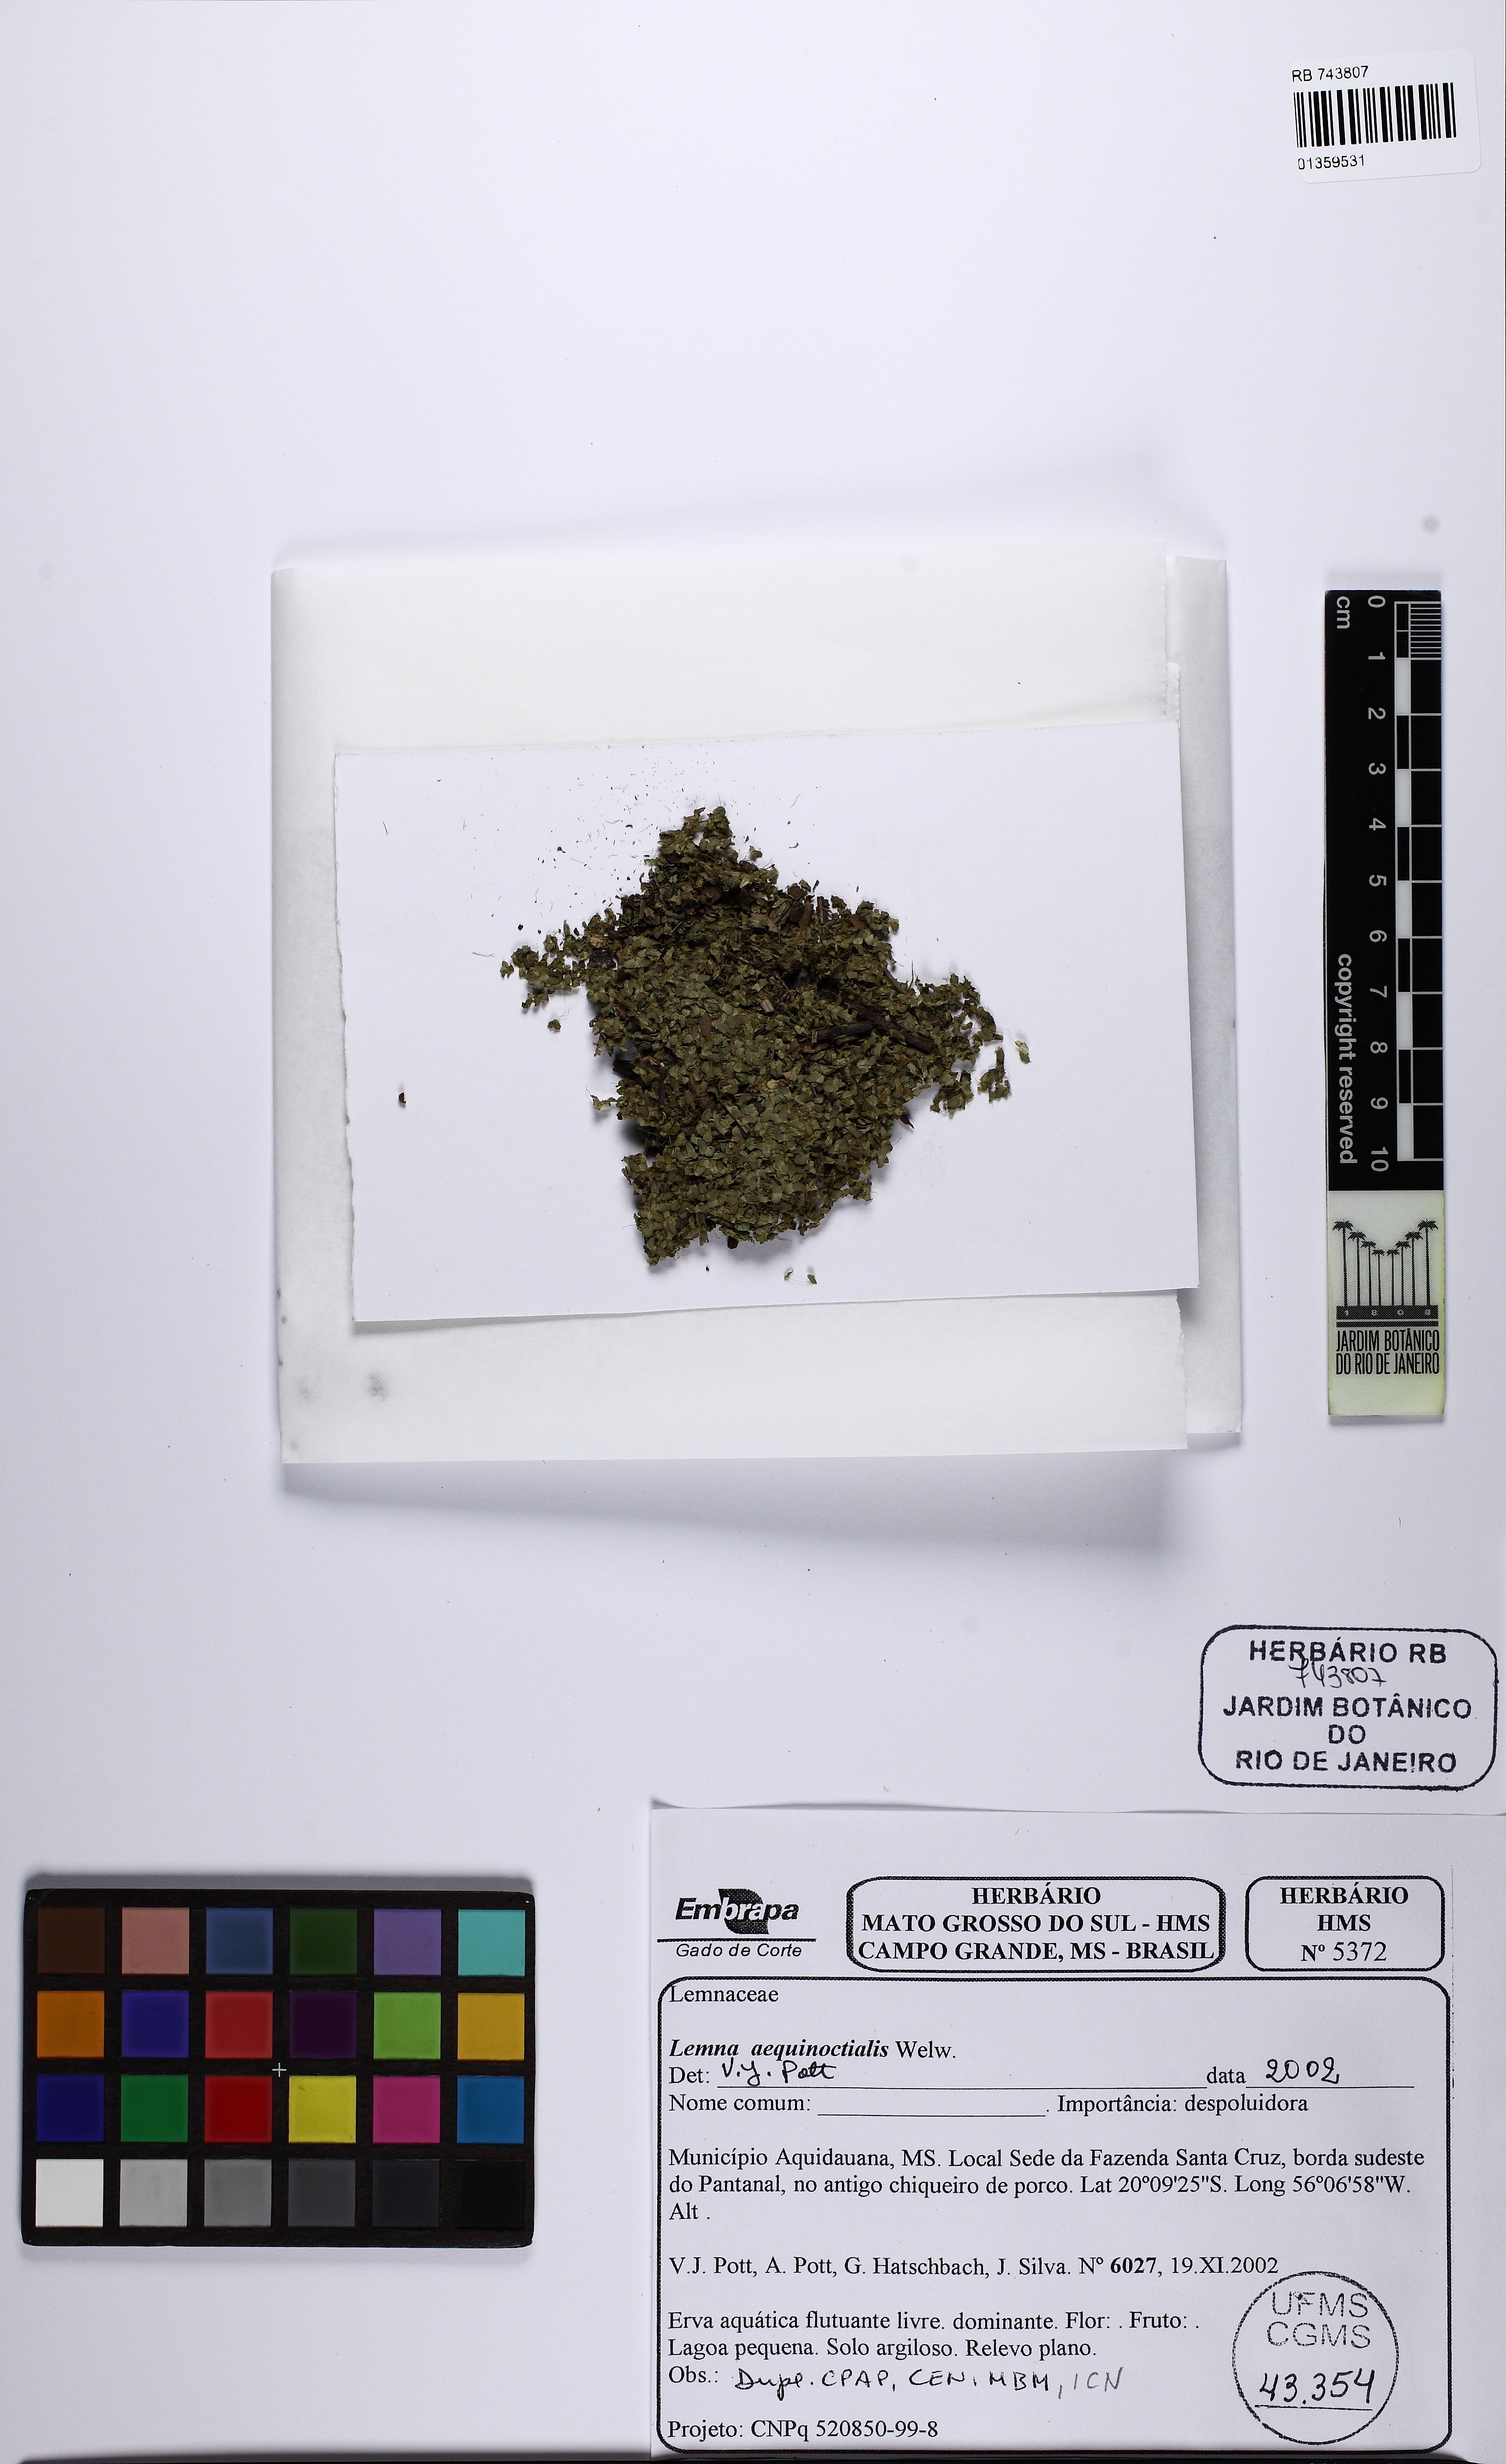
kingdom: Plantae
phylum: Tracheophyta
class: Liliopsida
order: Alismatales
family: Araceae
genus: Lemna
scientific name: Lemna aequinoctialis
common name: Duckweed
